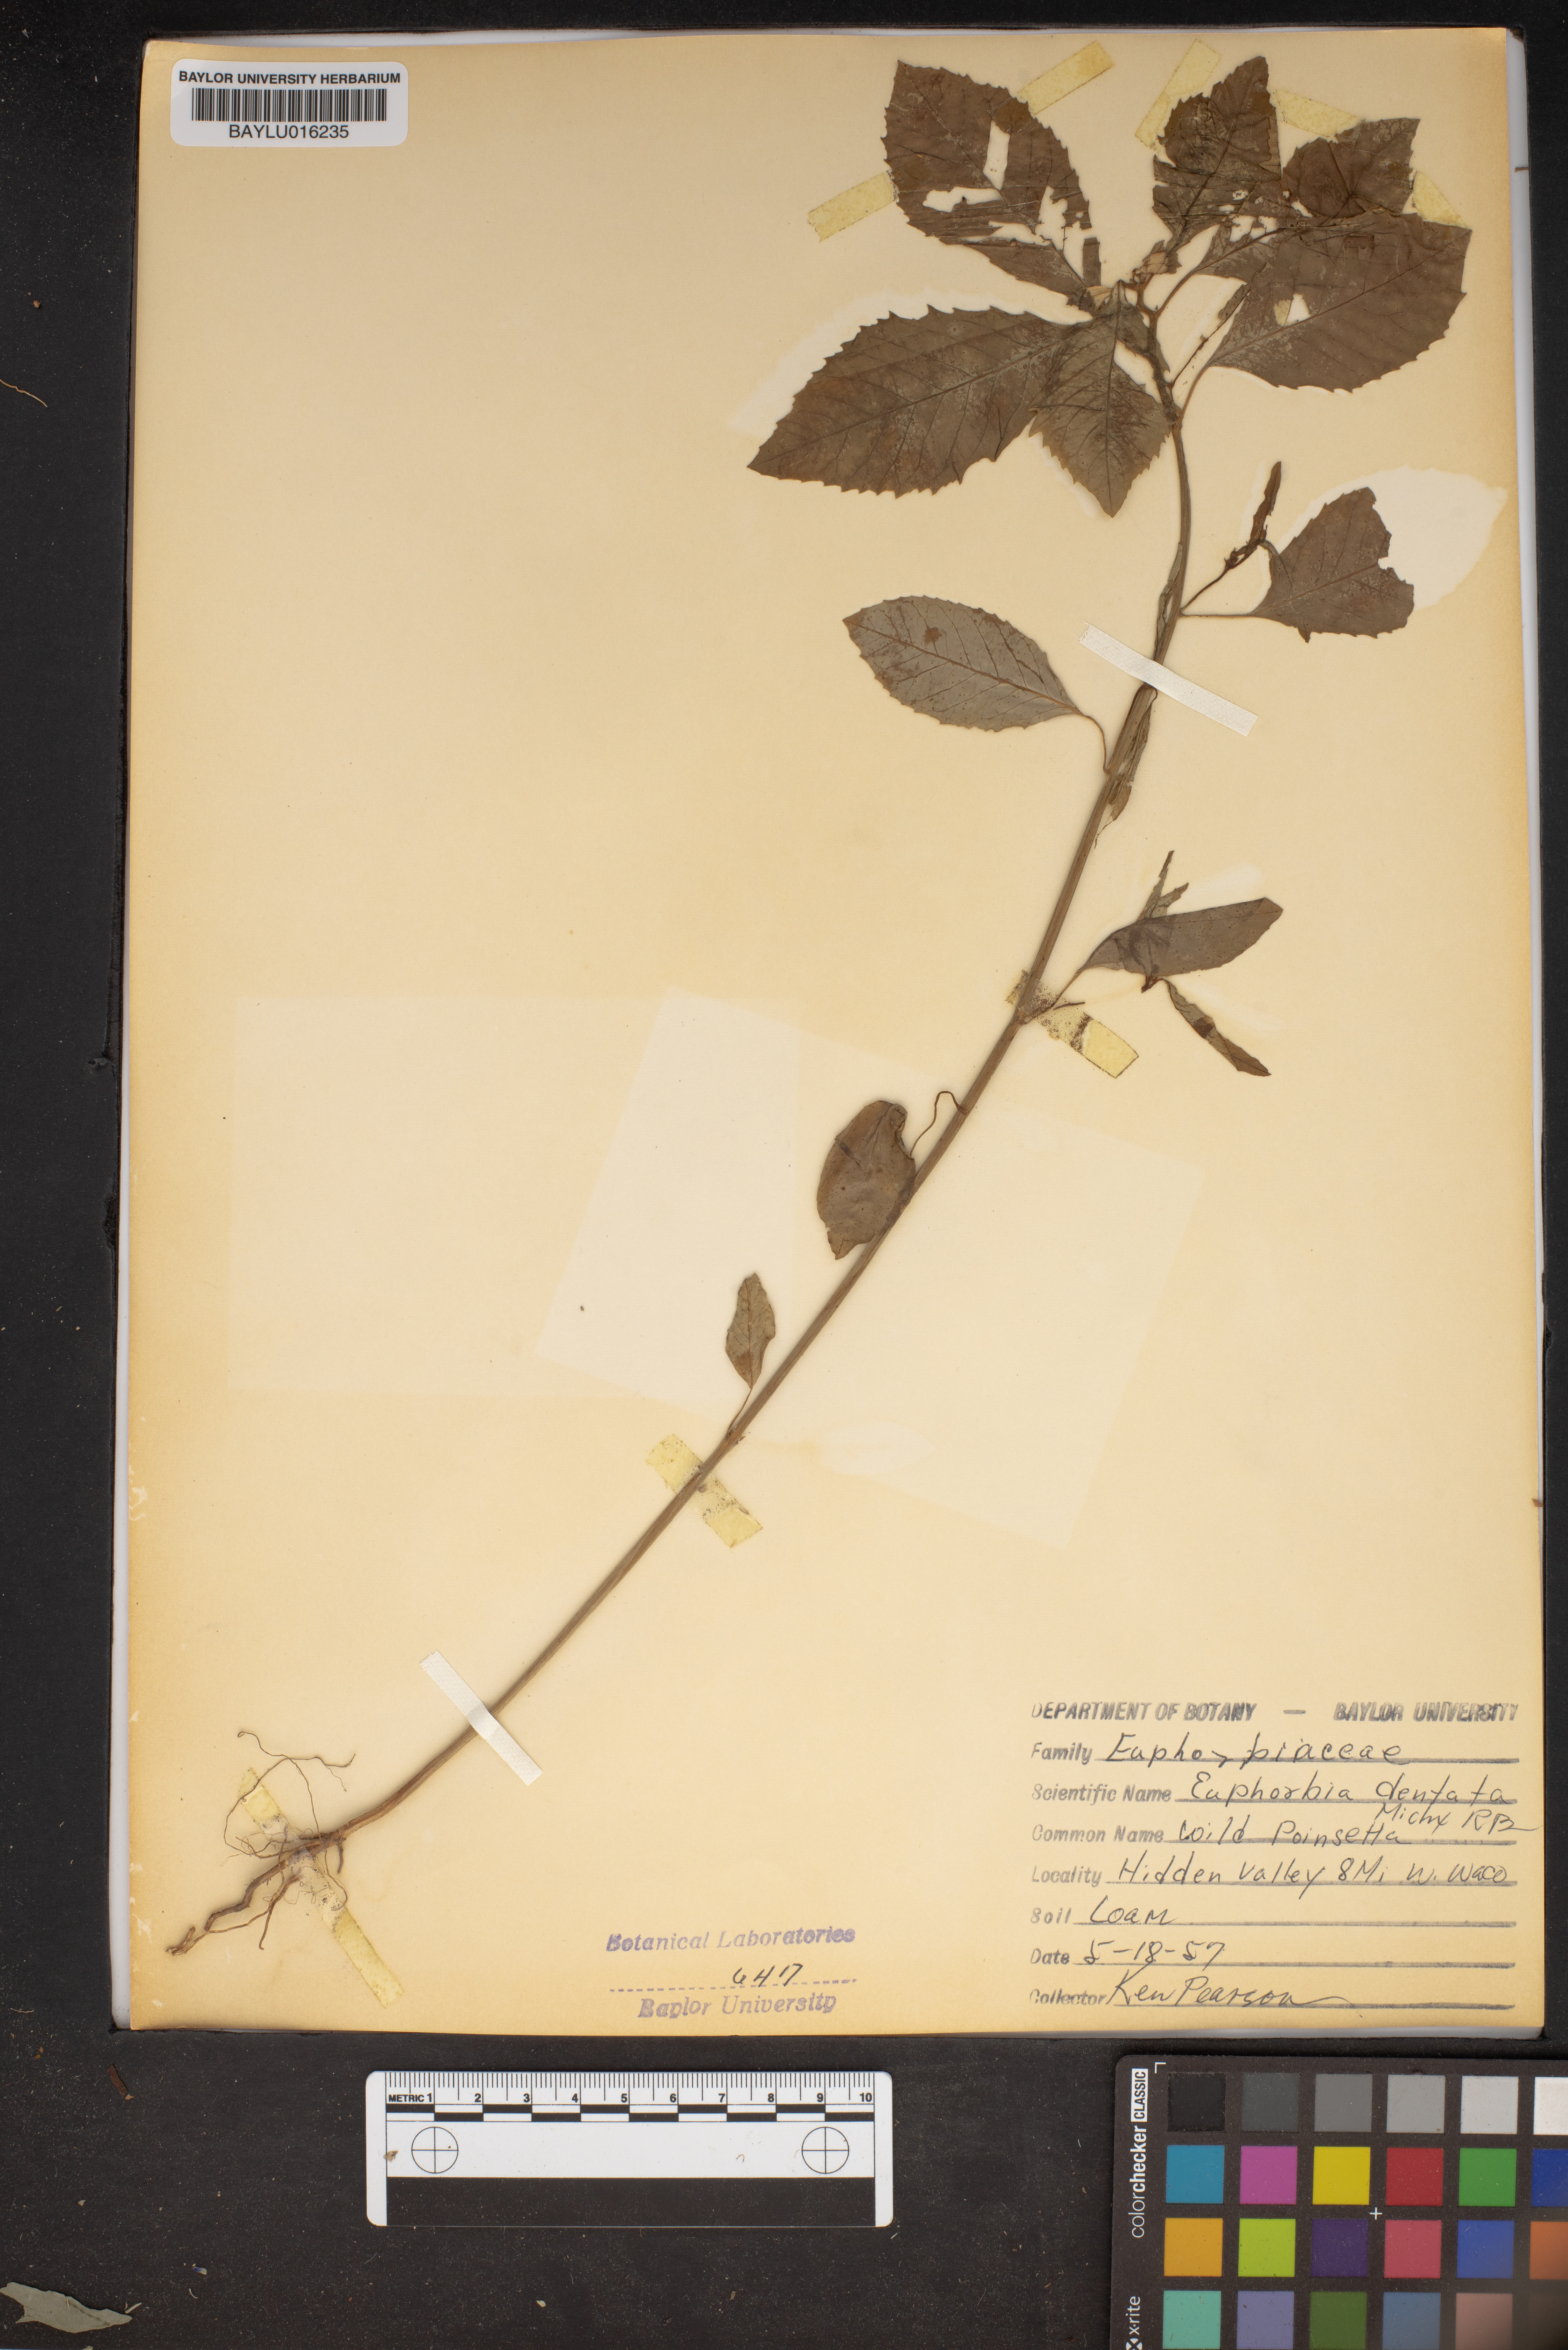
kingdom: Plantae
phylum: Tracheophyta
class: Magnoliopsida
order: Malpighiales
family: Euphorbiaceae
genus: Euphorbia
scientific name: Euphorbia dentata
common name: Dentate spurge
